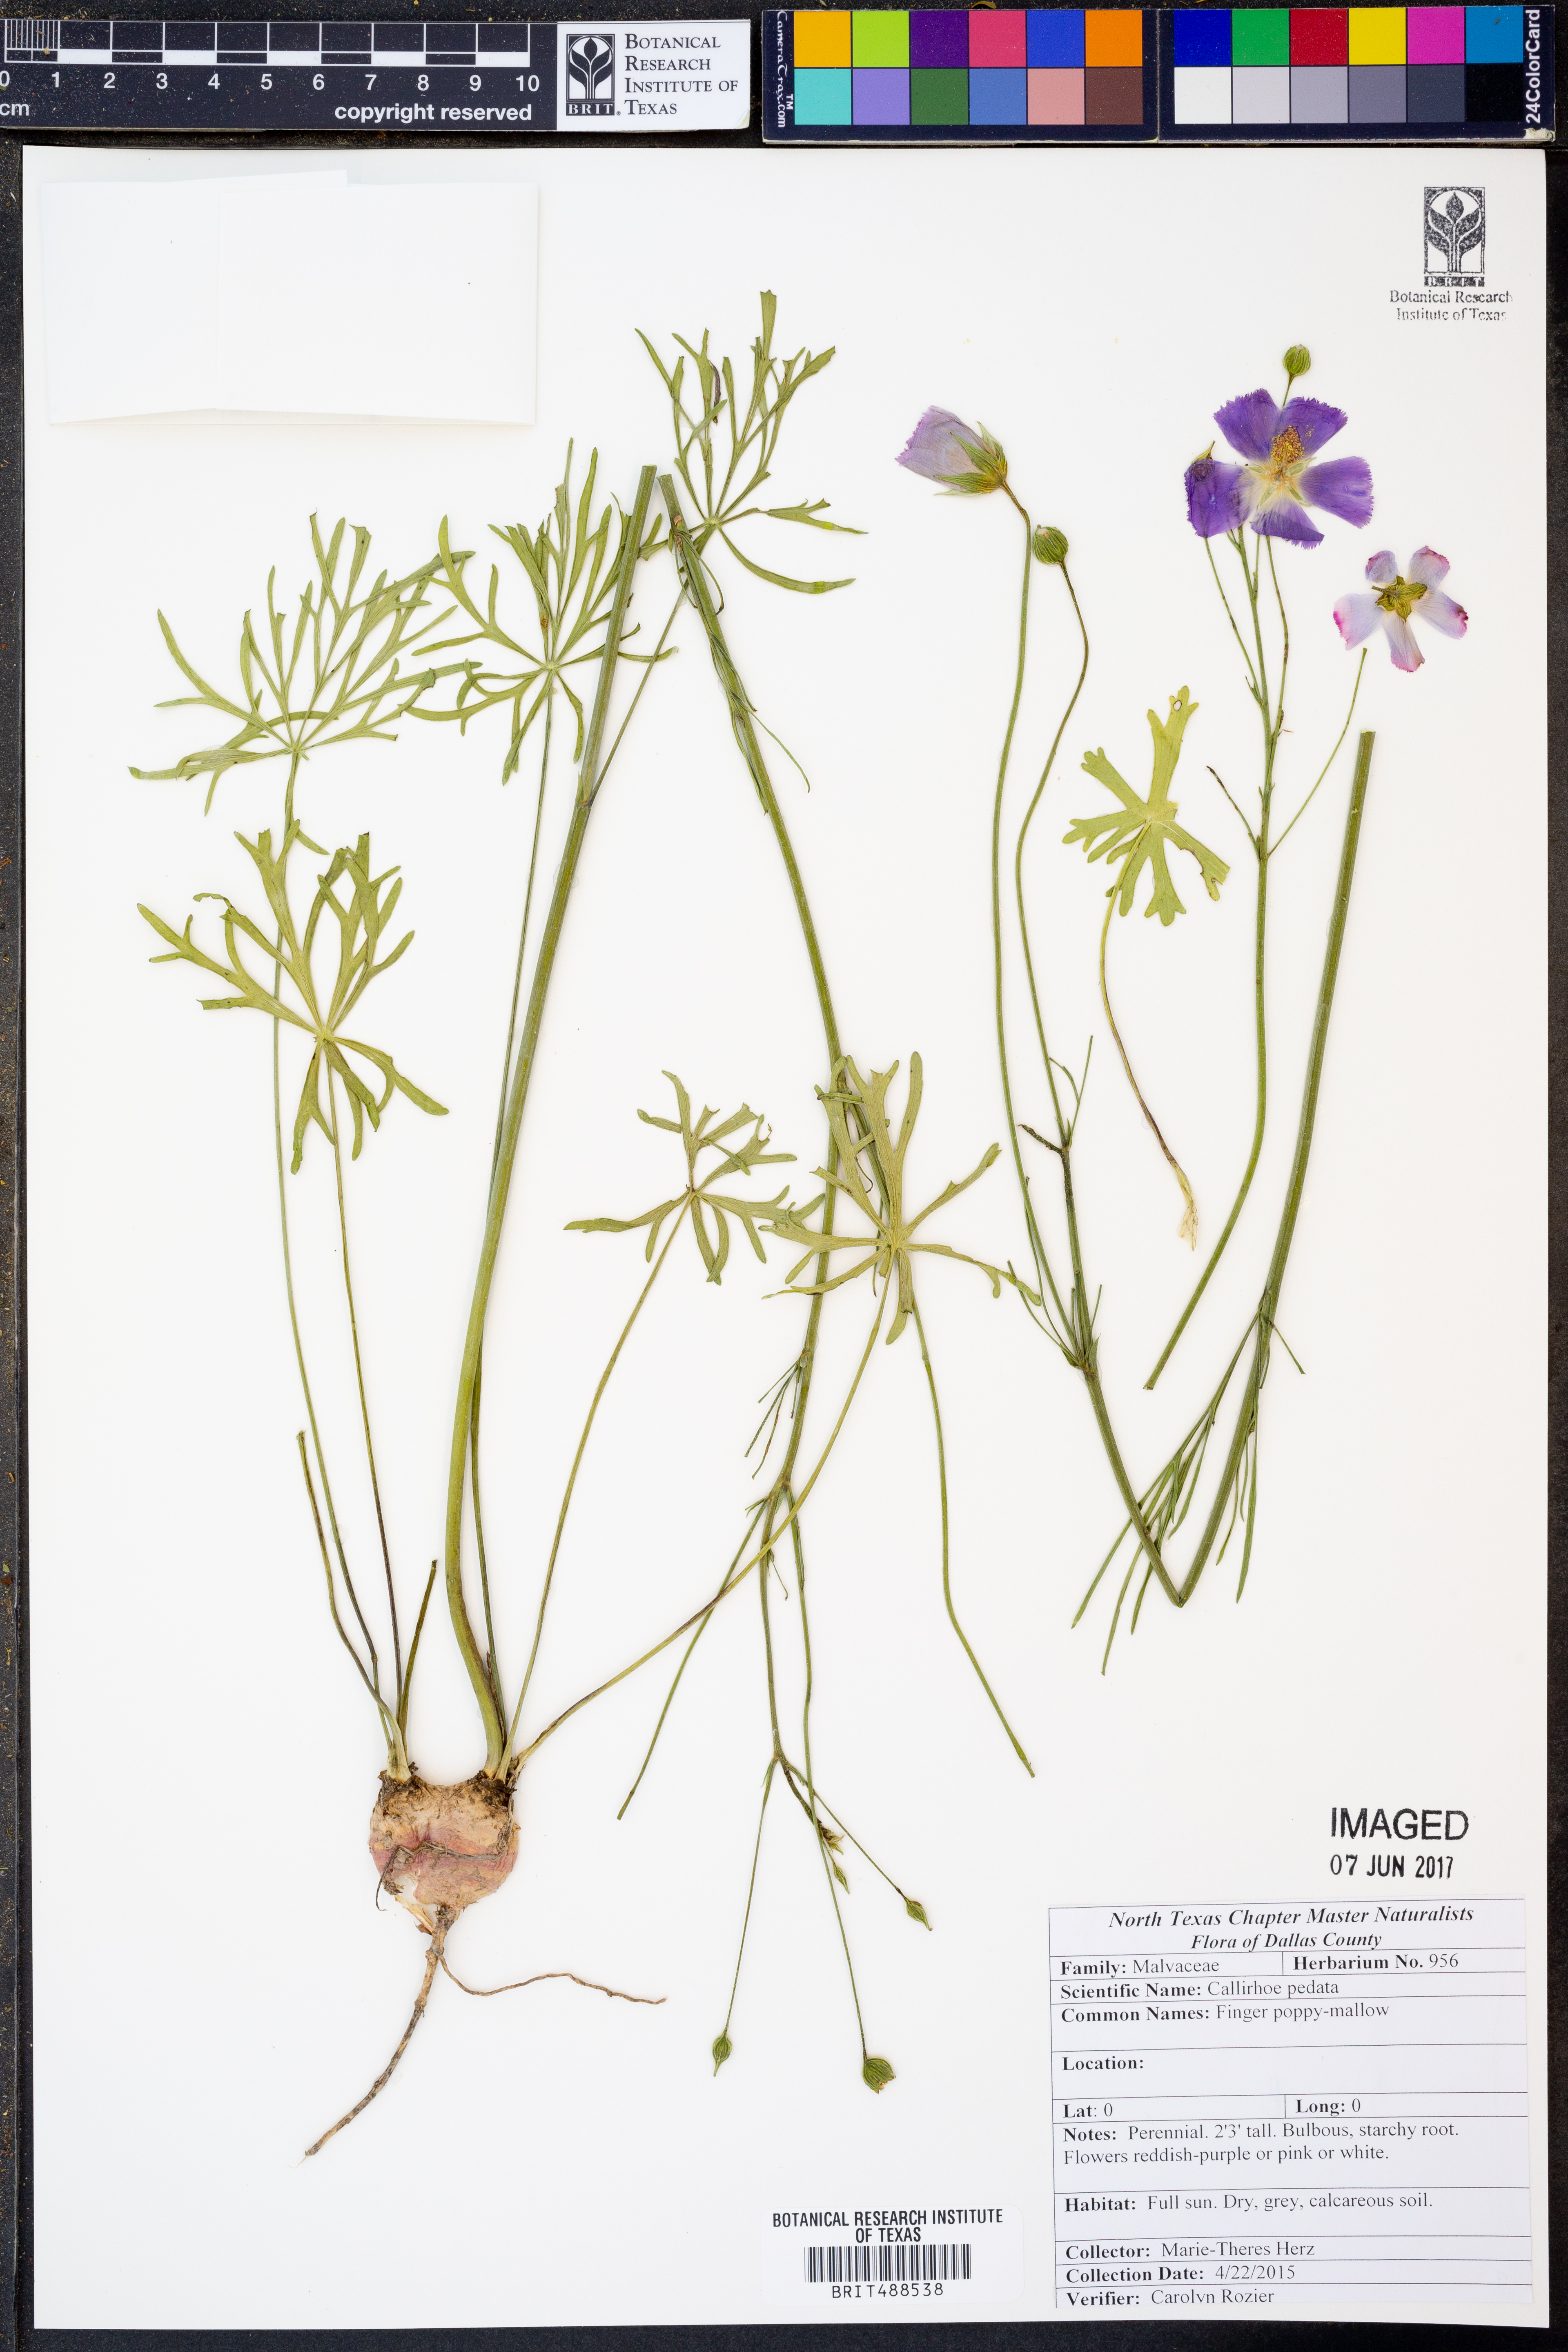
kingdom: Plantae
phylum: Tracheophyta
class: Magnoliopsida
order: Malvales
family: Malvaceae
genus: Callirhoe
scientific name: Callirhoe pedata
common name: Finger poppy-mallow
